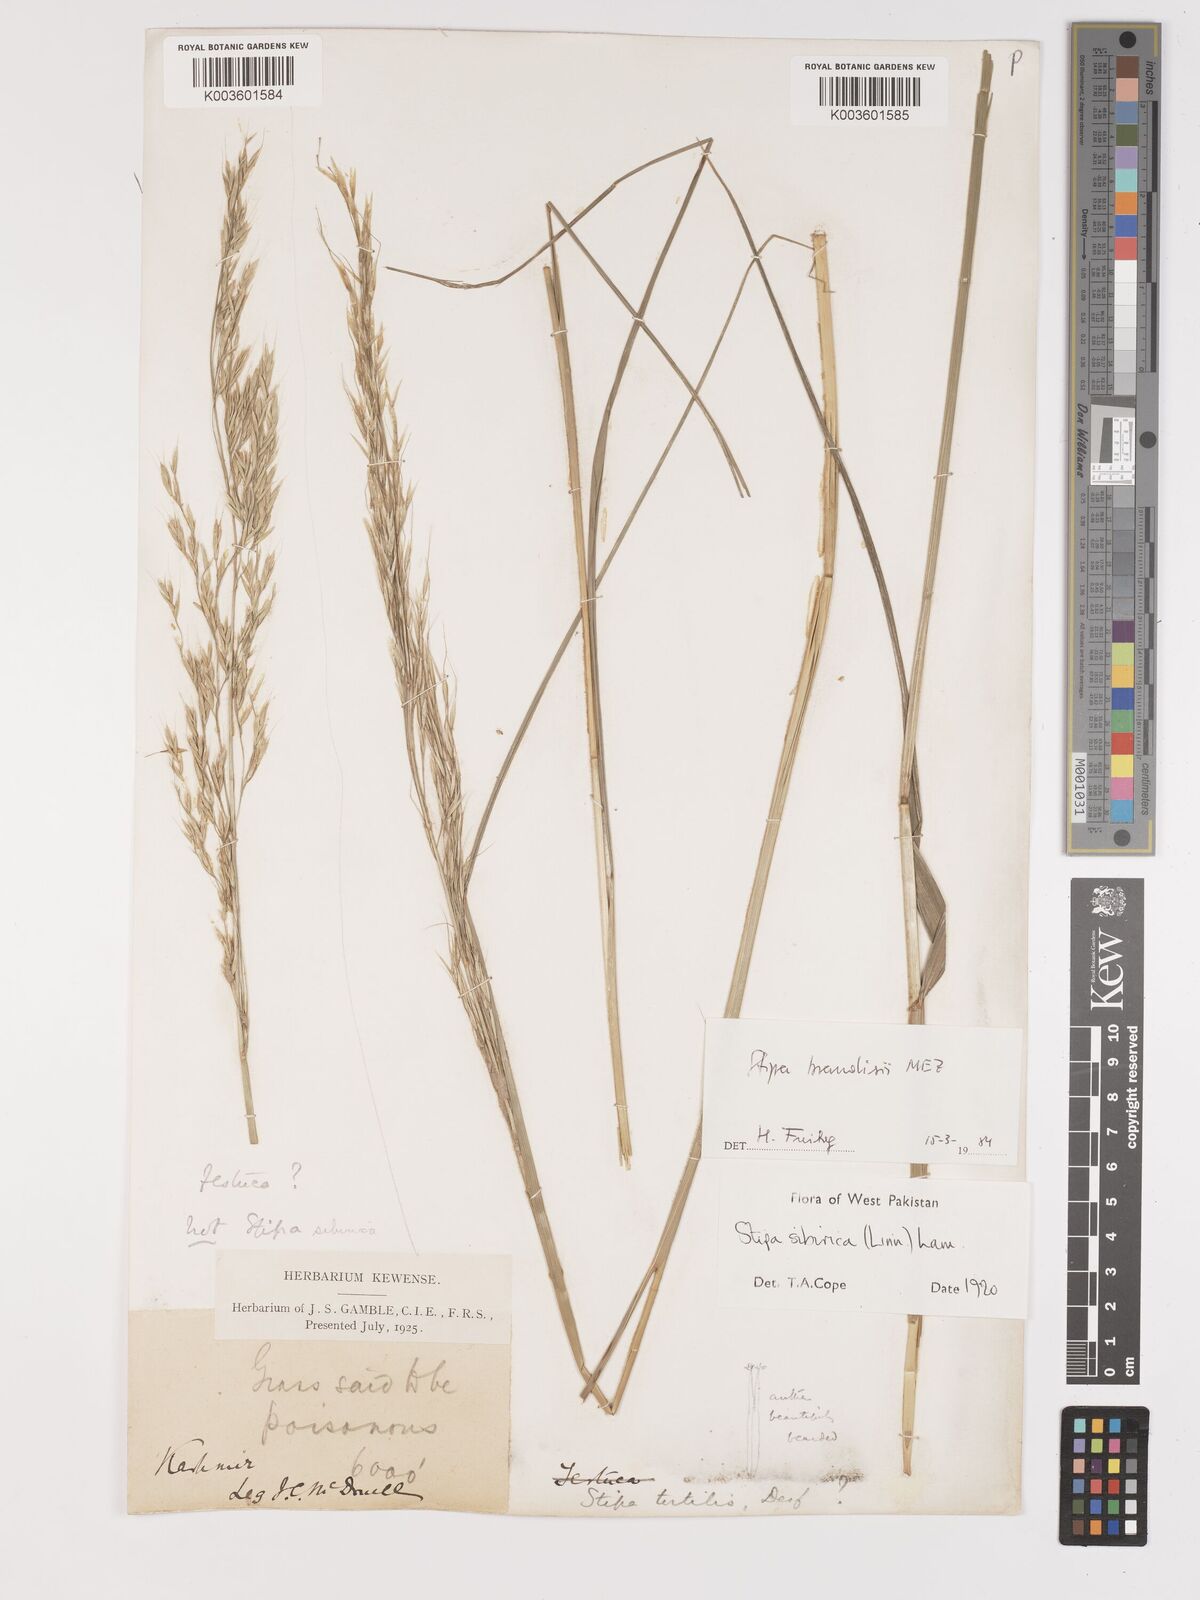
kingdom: Plantae
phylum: Tracheophyta
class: Liliopsida
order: Poales
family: Poaceae
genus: Achnatherum
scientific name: Achnatherum brandisii
